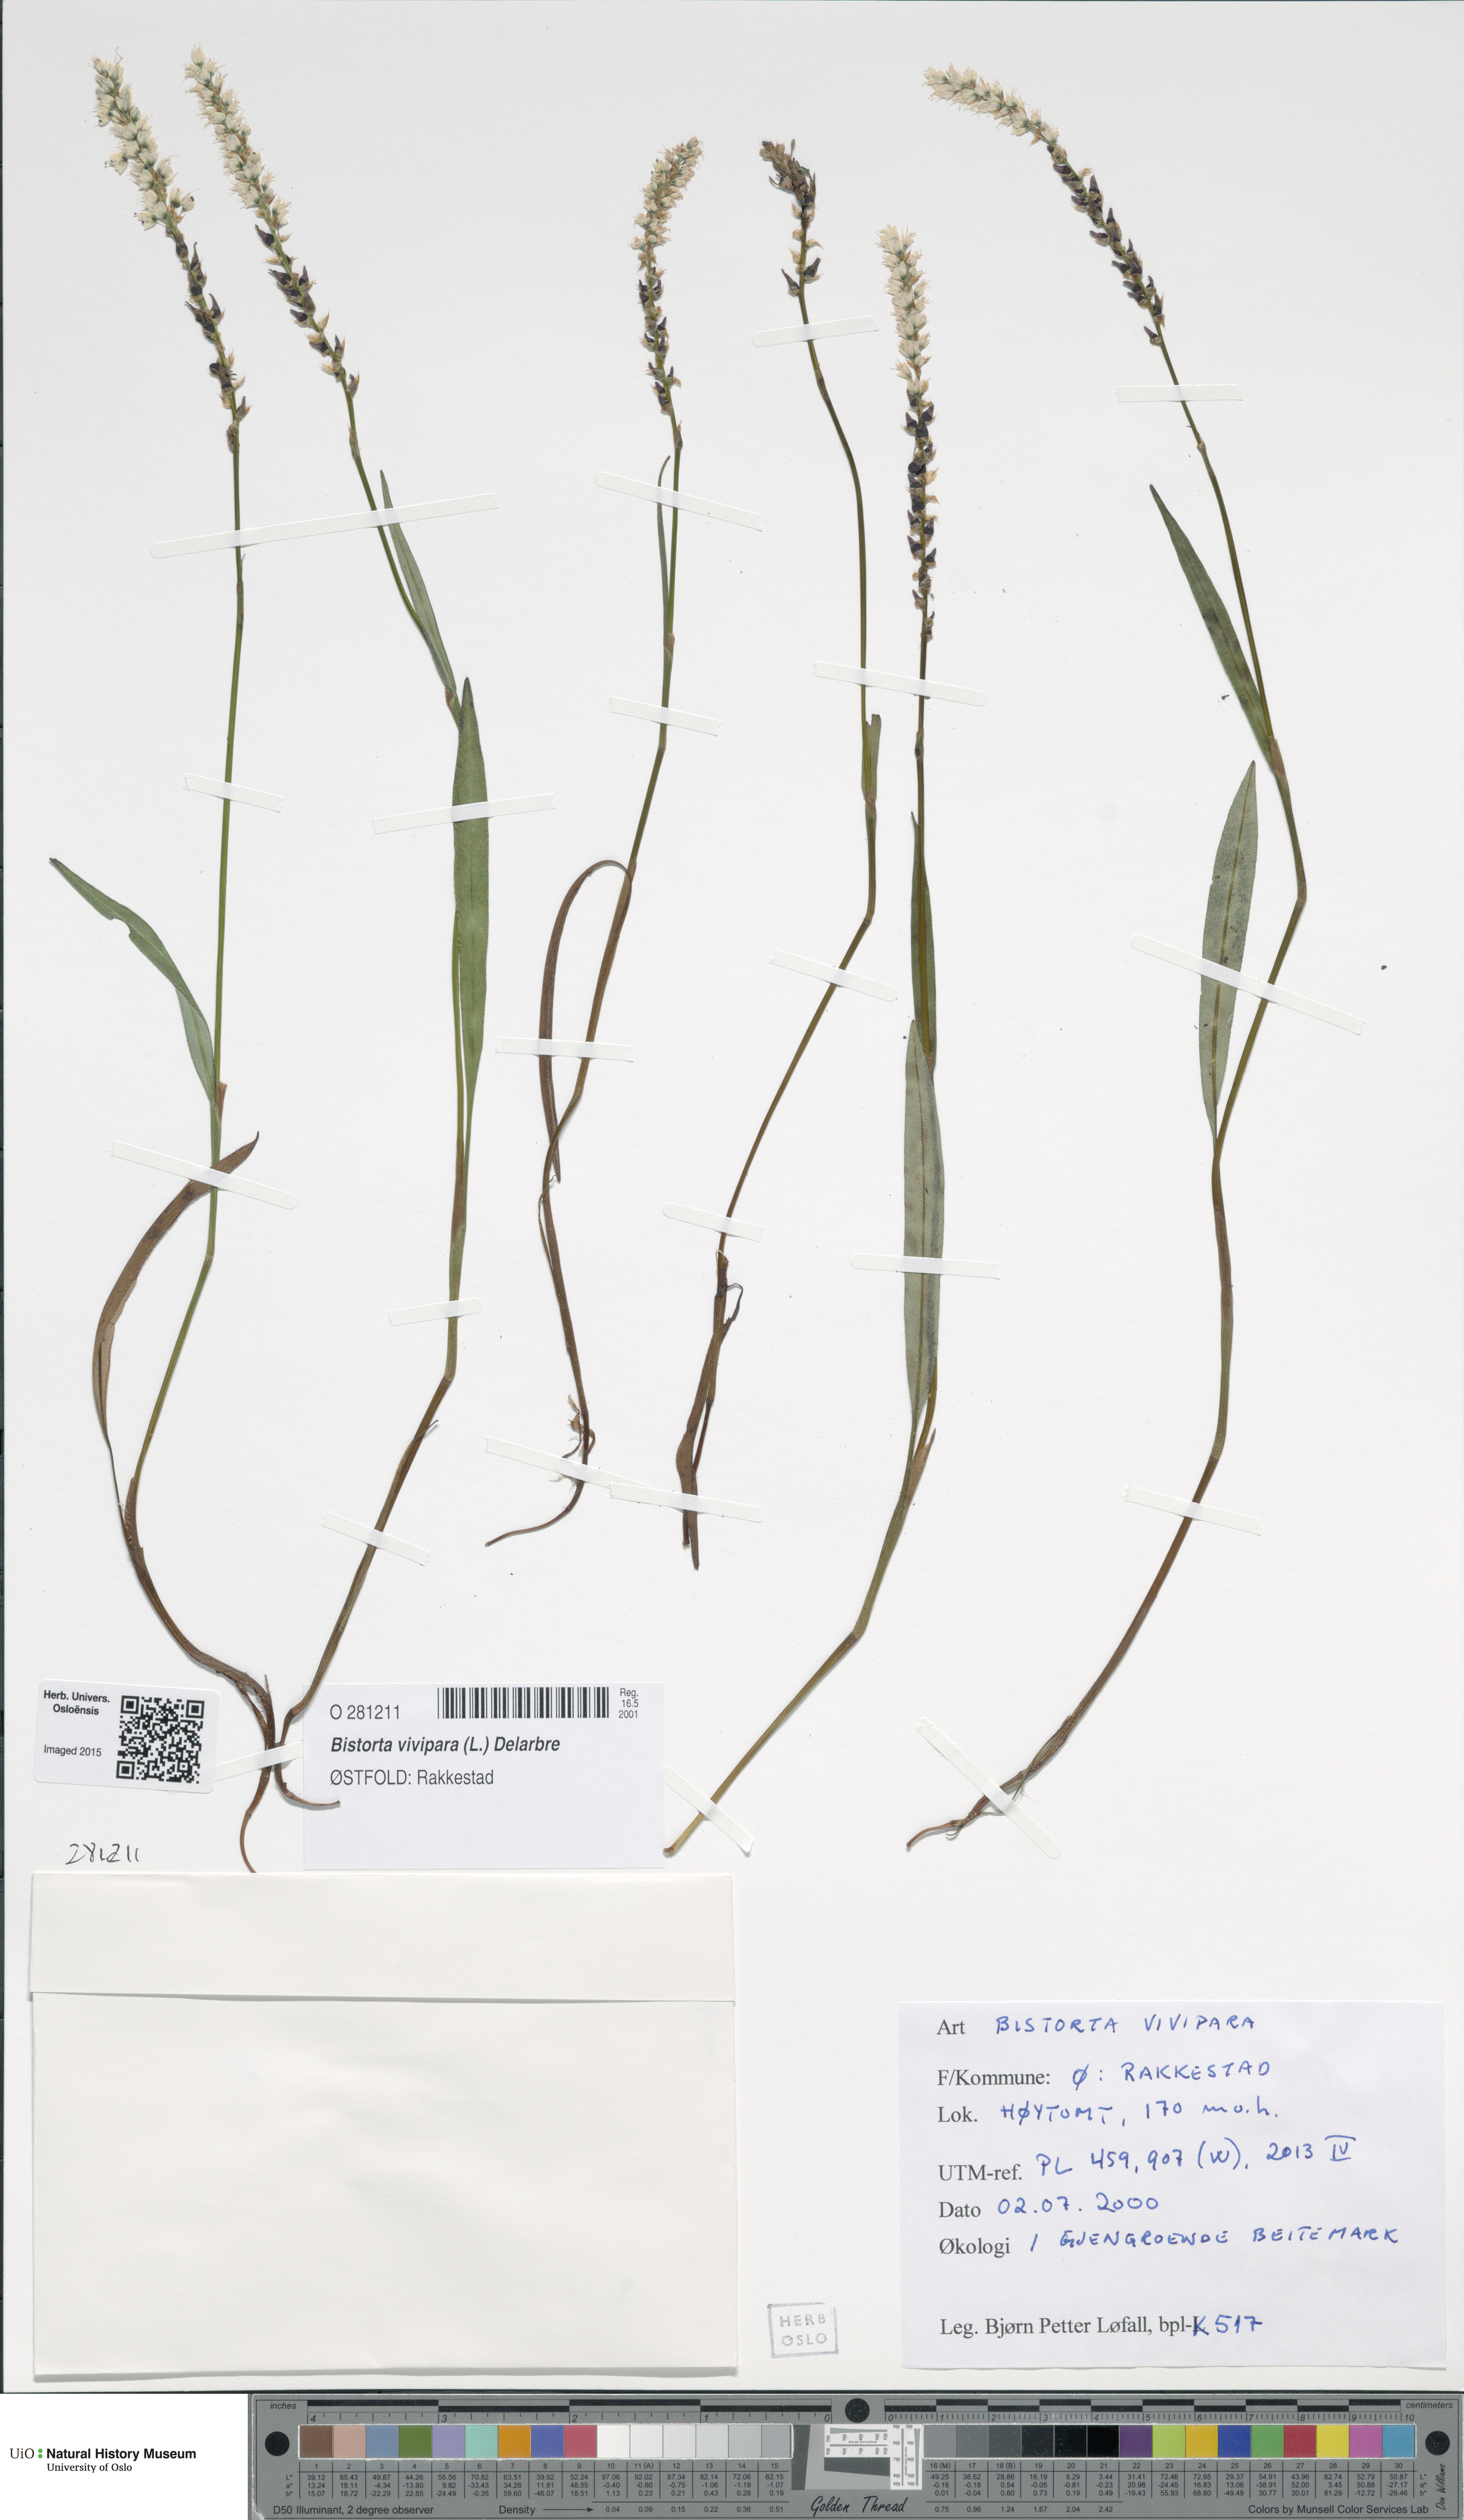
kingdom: Plantae
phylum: Tracheophyta
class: Magnoliopsida
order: Caryophyllales
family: Polygonaceae
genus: Bistorta
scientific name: Bistorta vivipara
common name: Alpine bistort
